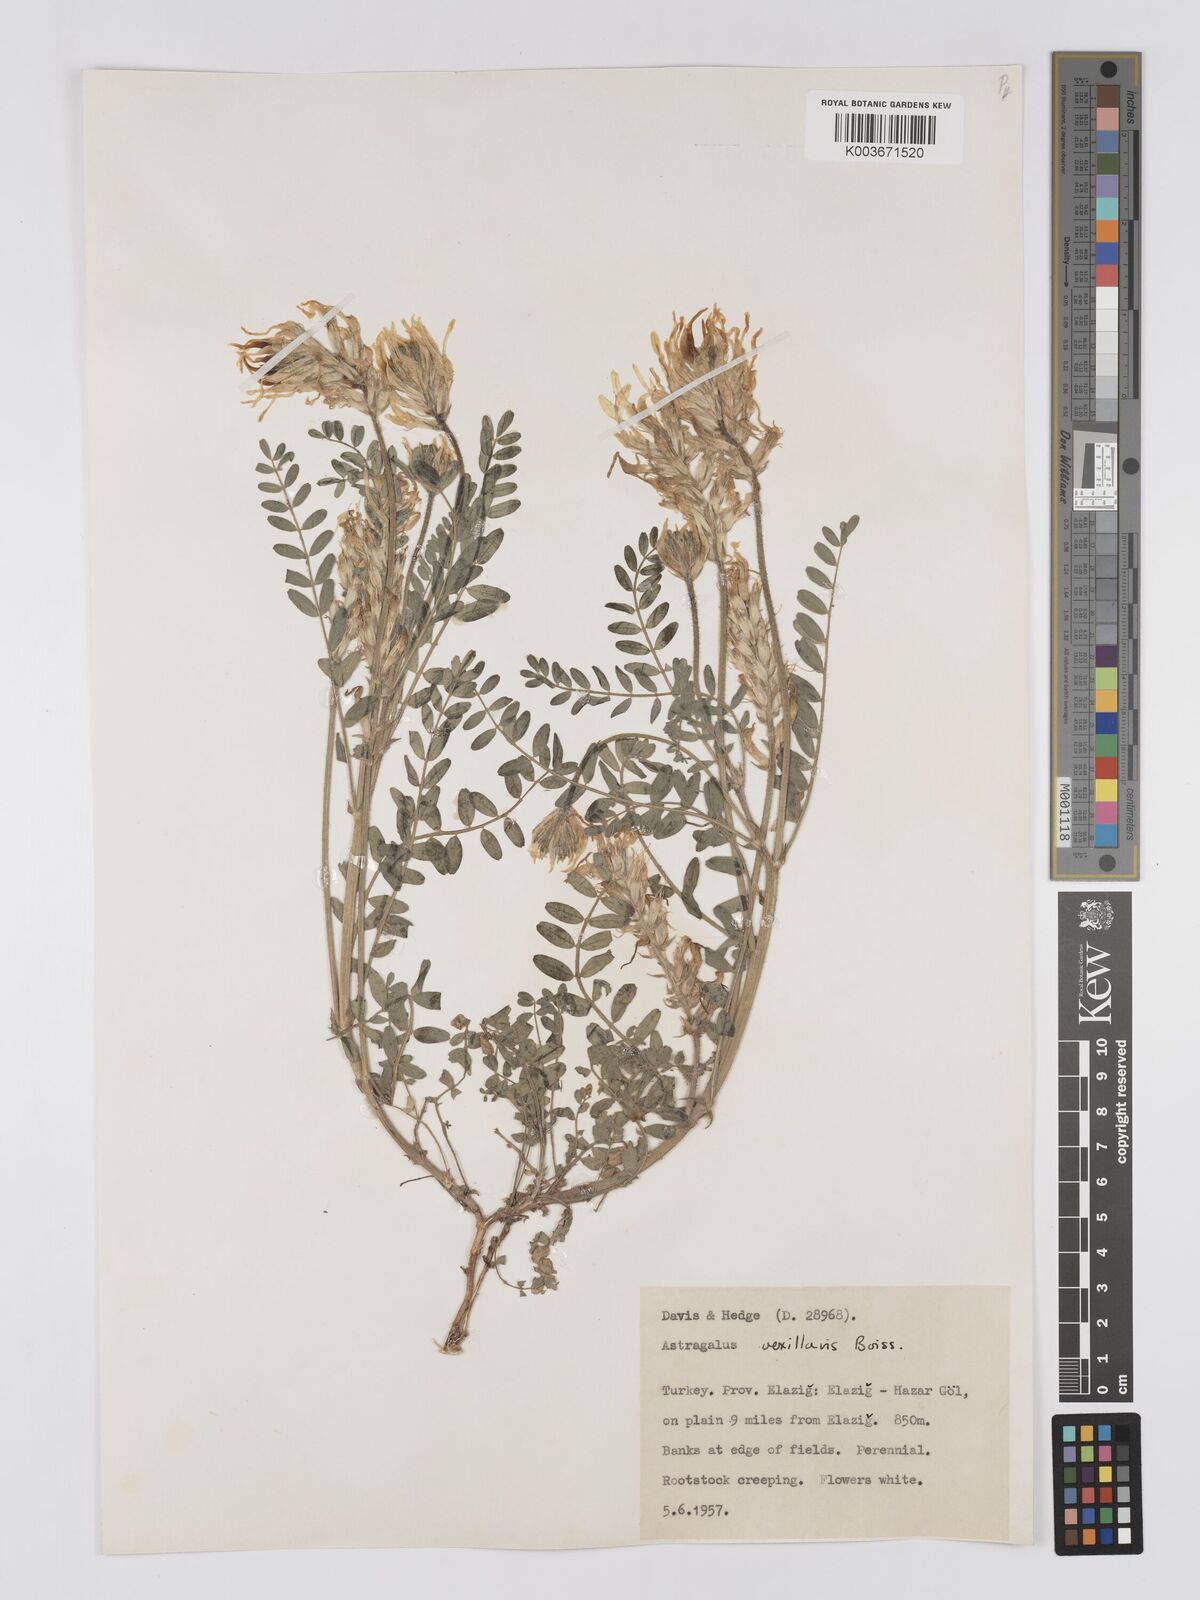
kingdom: Plantae
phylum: Tracheophyta
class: Magnoliopsida
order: Fabales
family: Fabaceae
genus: Astragalus
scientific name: Astragalus vexillaris
